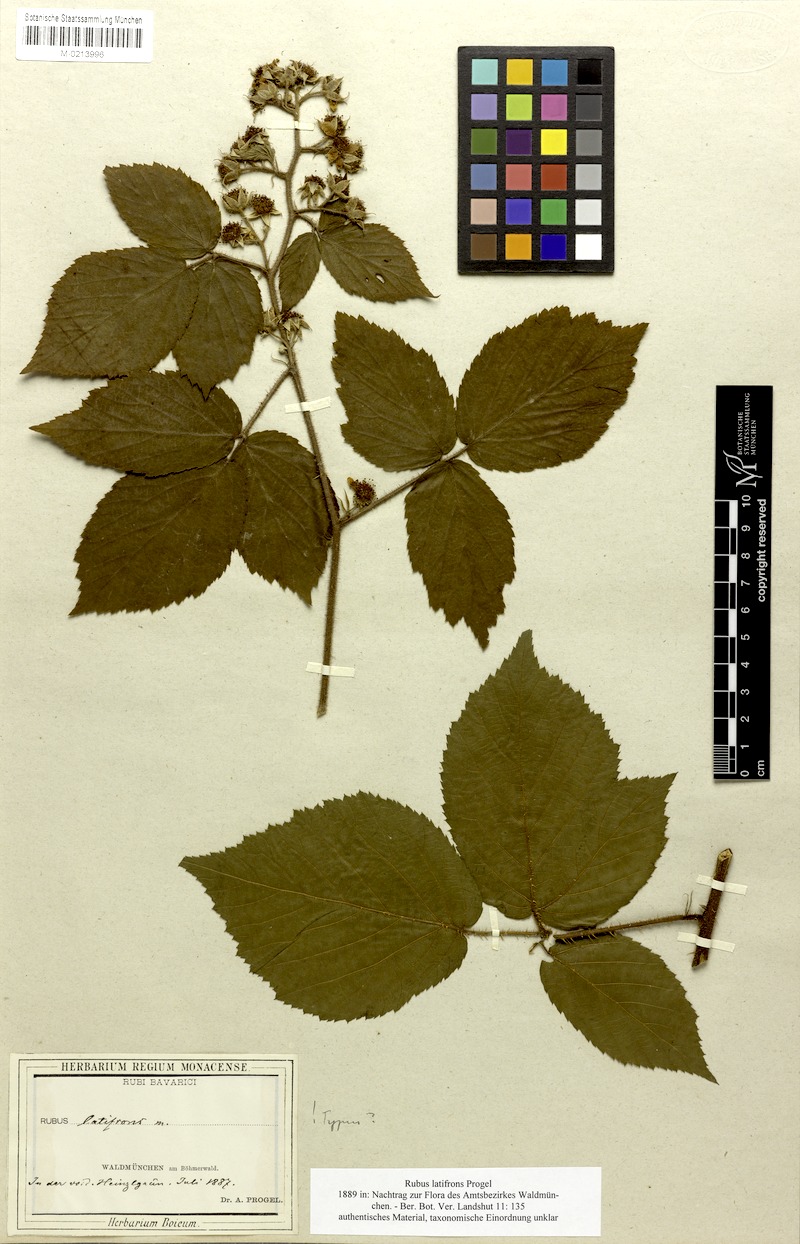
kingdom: Plantae
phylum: Tracheophyta
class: Magnoliopsida
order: Rosales
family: Rosaceae
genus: Rubus
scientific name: Rubus latifrons
